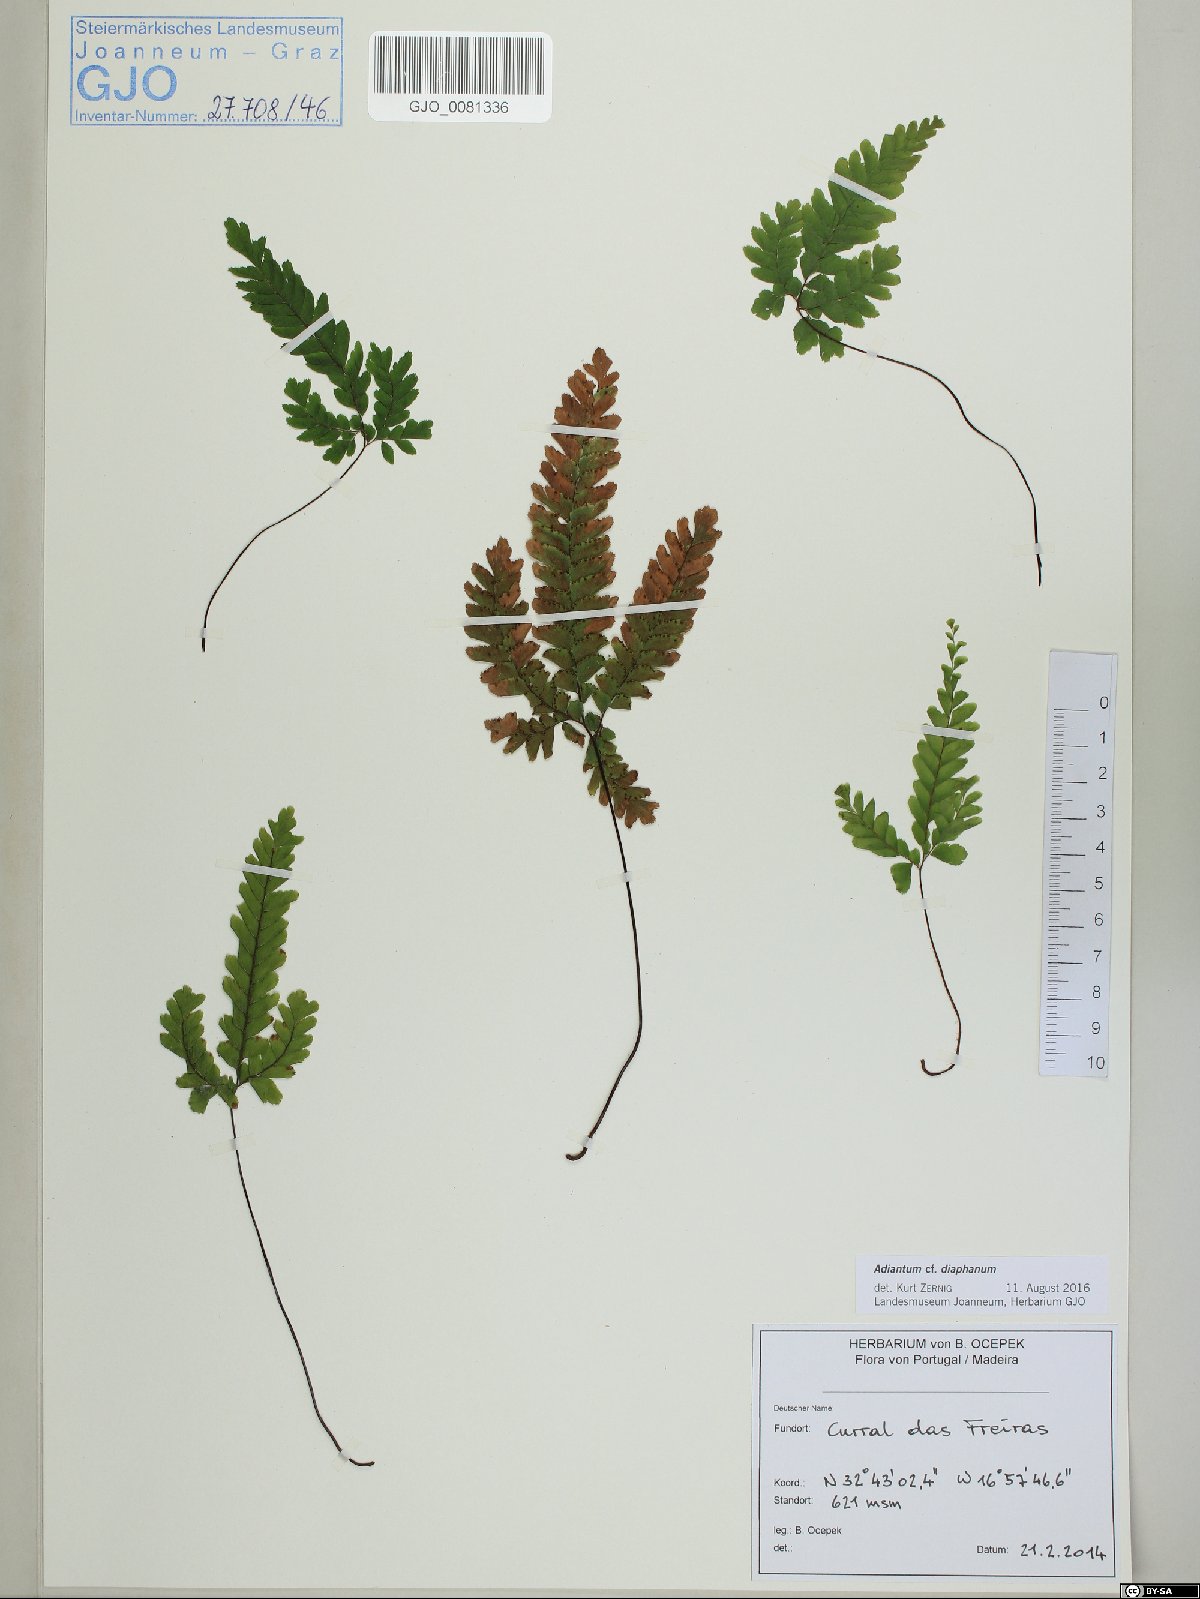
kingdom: Plantae
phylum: Tracheophyta
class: Polypodiopsida
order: Polypodiales
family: Pteridaceae
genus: Adiantum
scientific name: Adiantum diaphanum
